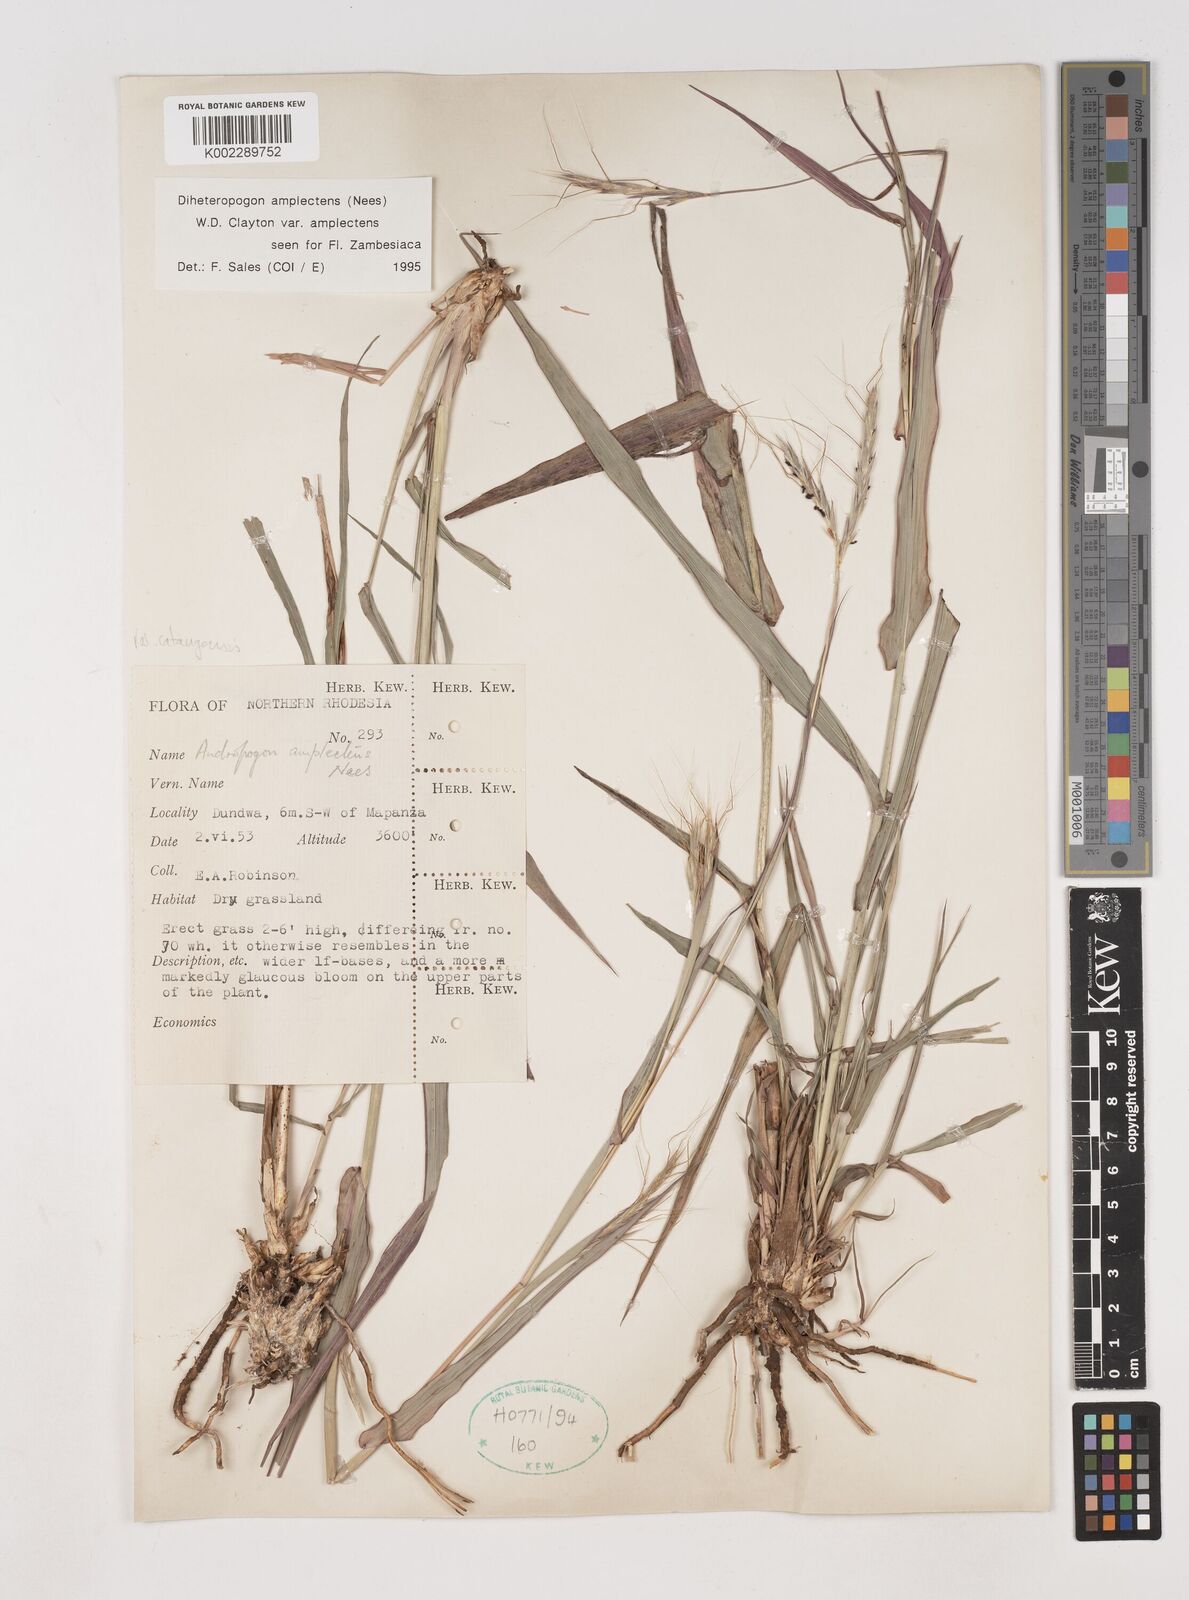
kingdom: Plantae
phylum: Tracheophyta
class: Liliopsida
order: Poales
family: Poaceae
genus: Diheteropogon
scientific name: Diheteropogon amplectens
